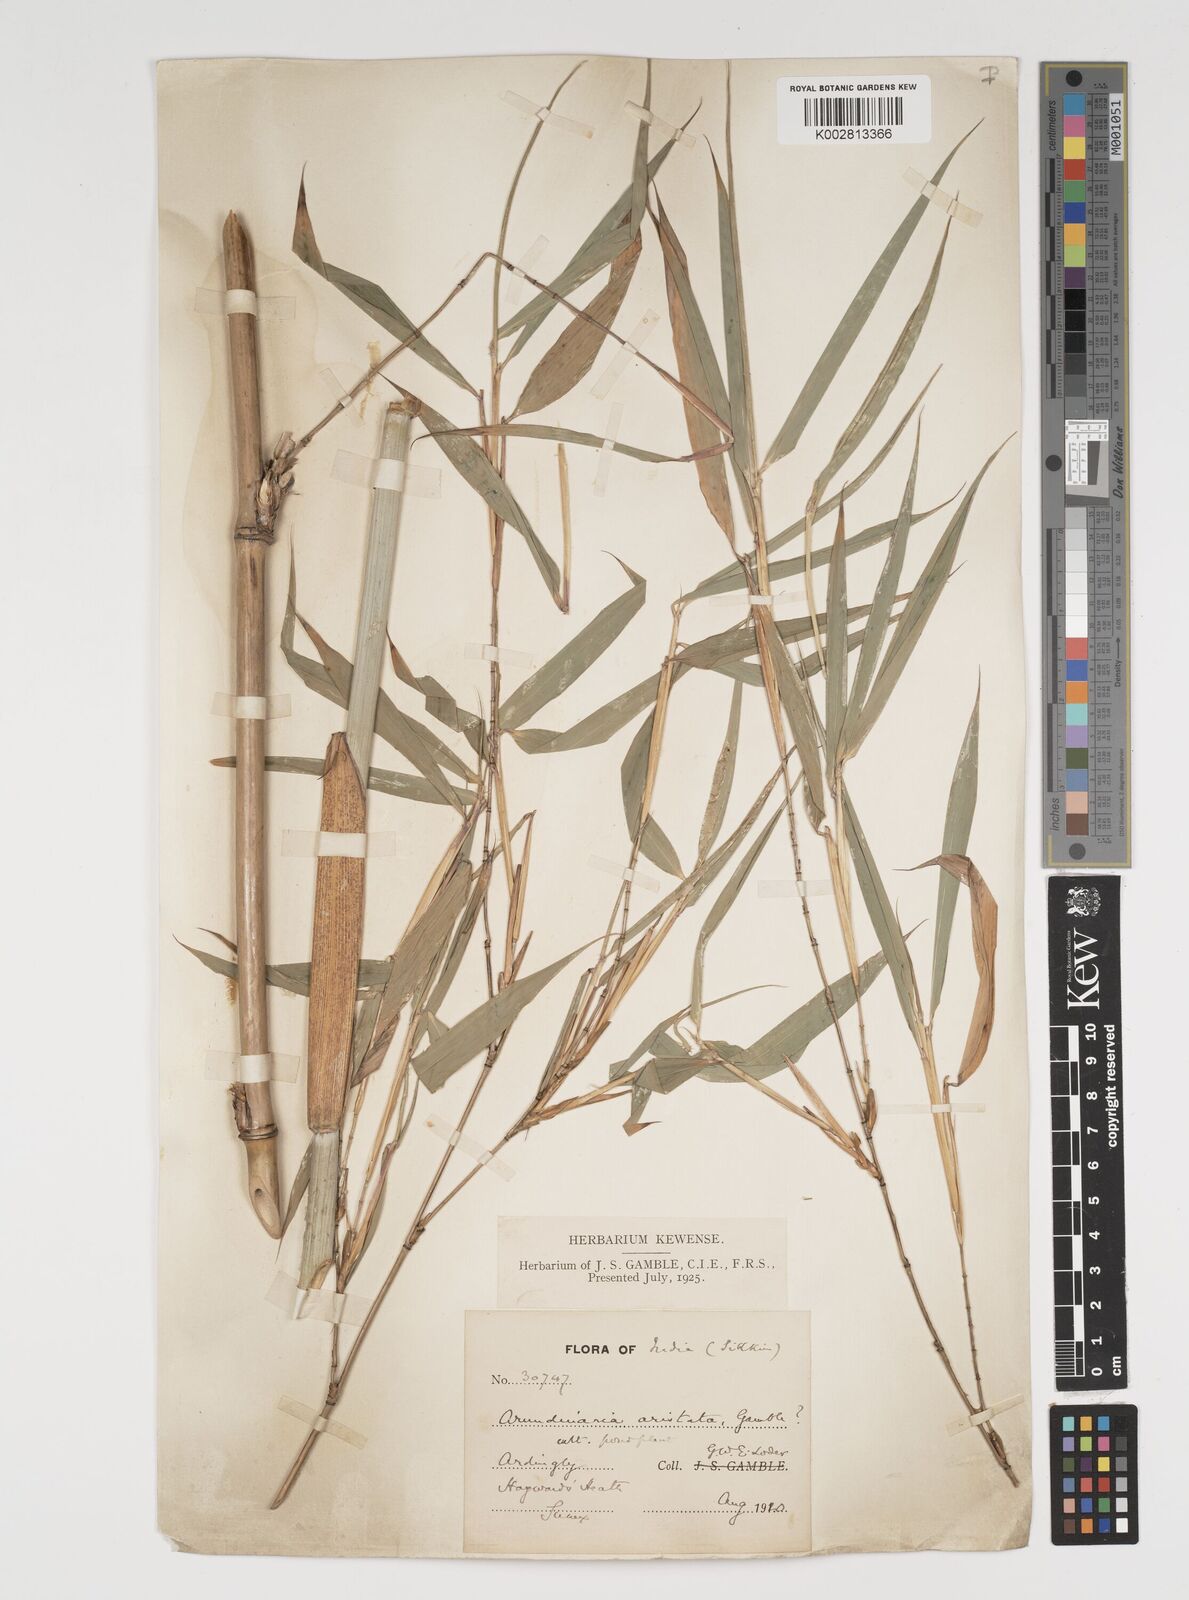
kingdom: Plantae
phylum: Tracheophyta
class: Liliopsida
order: Poales
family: Poaceae
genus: Thamnocalamus
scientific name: Thamnocalamus spathiflorus
